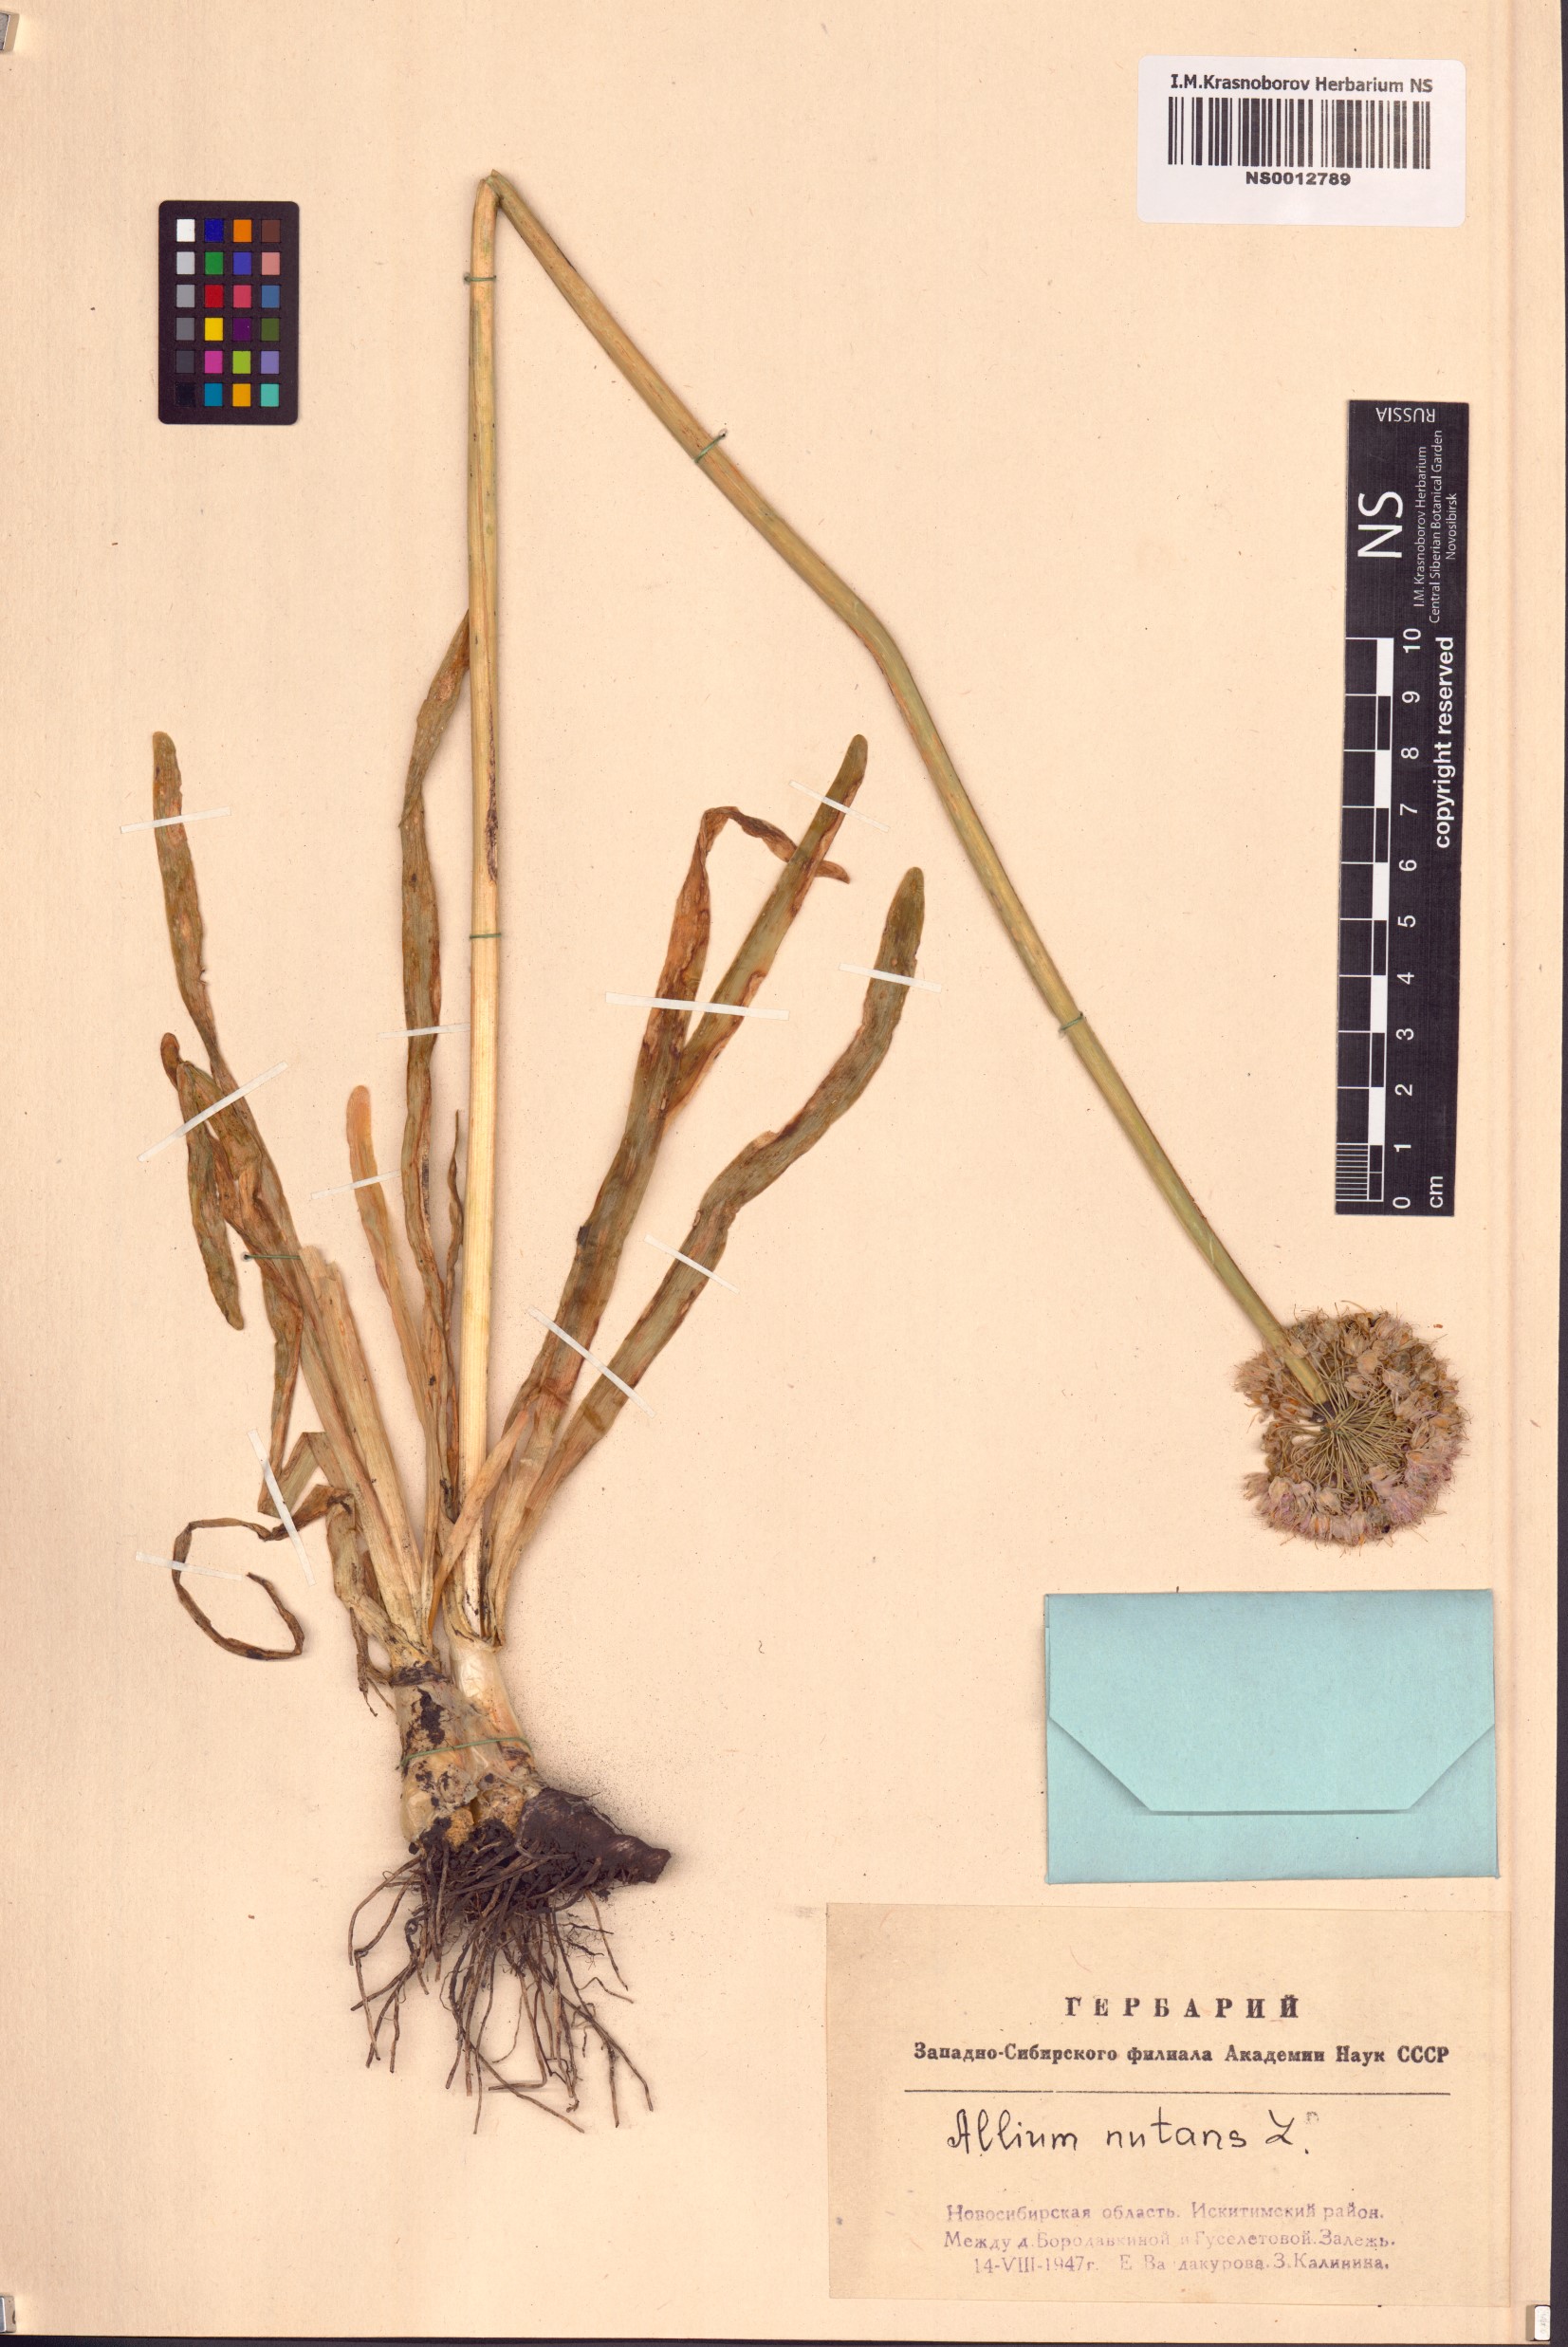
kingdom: Plantae
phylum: Tracheophyta
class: Liliopsida
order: Asparagales
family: Amaryllidaceae
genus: Allium
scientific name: Allium nutans
